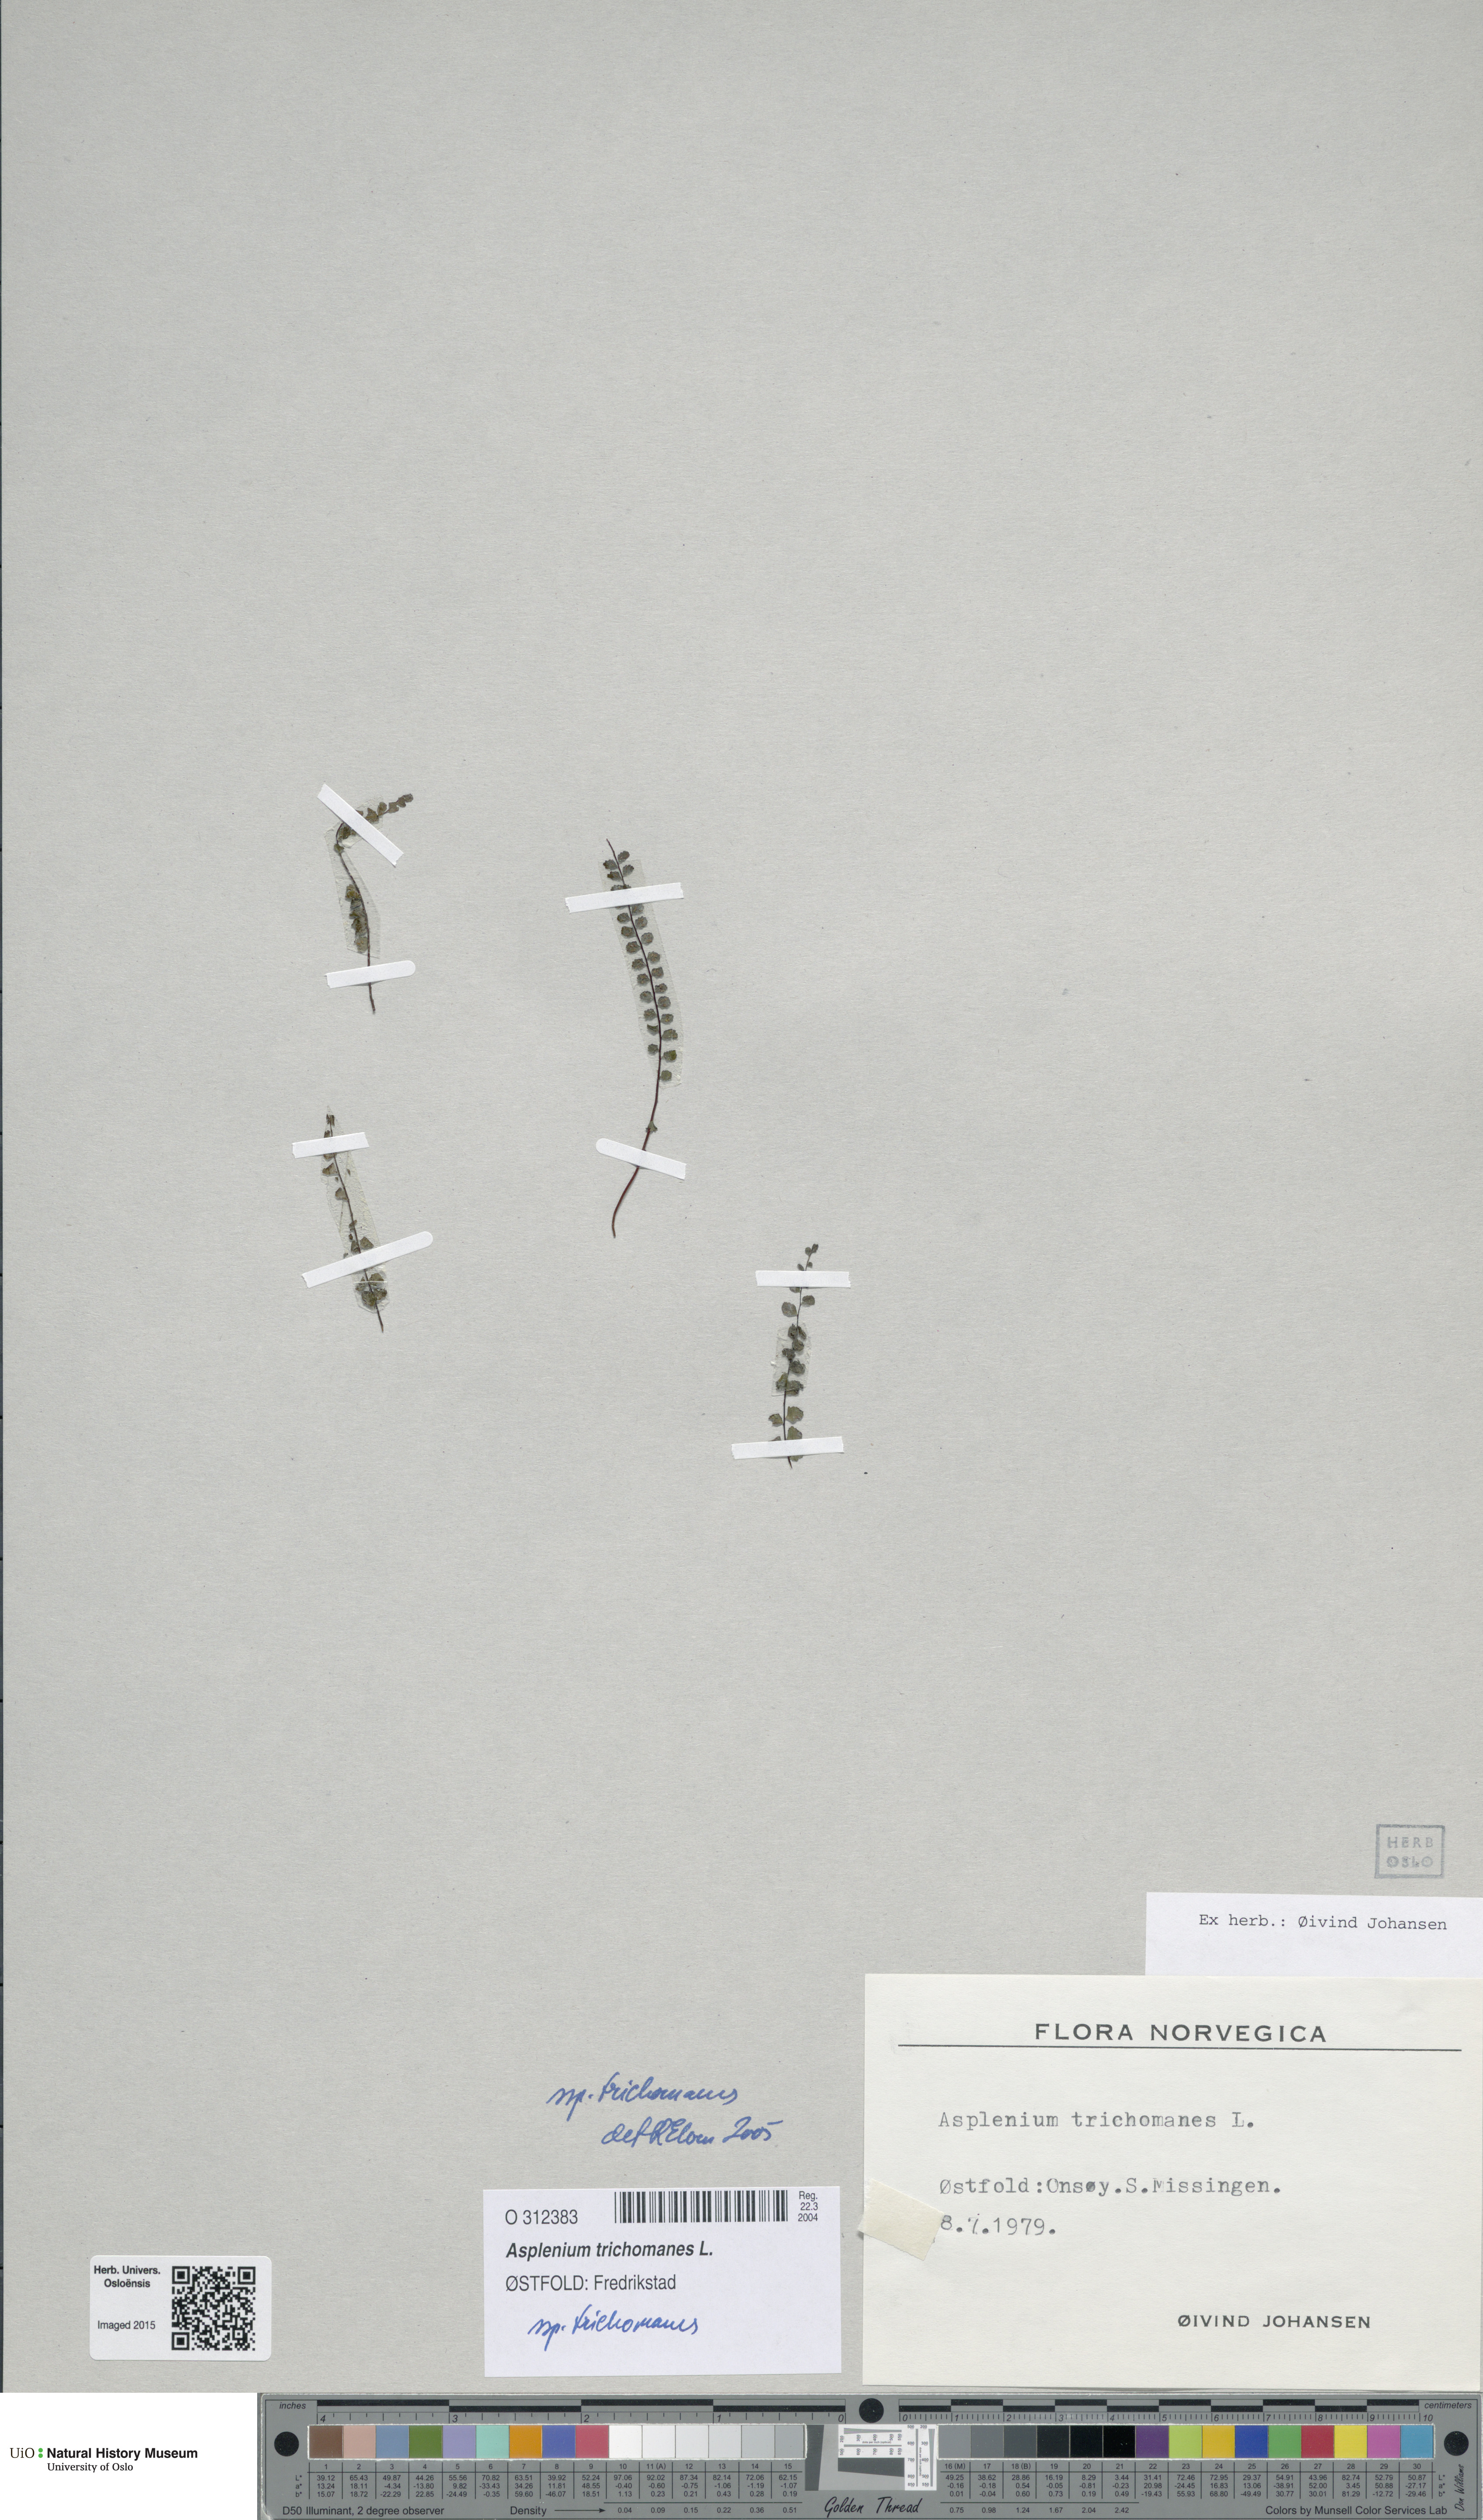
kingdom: Plantae
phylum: Tracheophyta
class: Polypodiopsida
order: Polypodiales
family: Aspleniaceae
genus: Asplenium
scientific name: Asplenium trichomanes
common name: Maidenhair spleenwort
